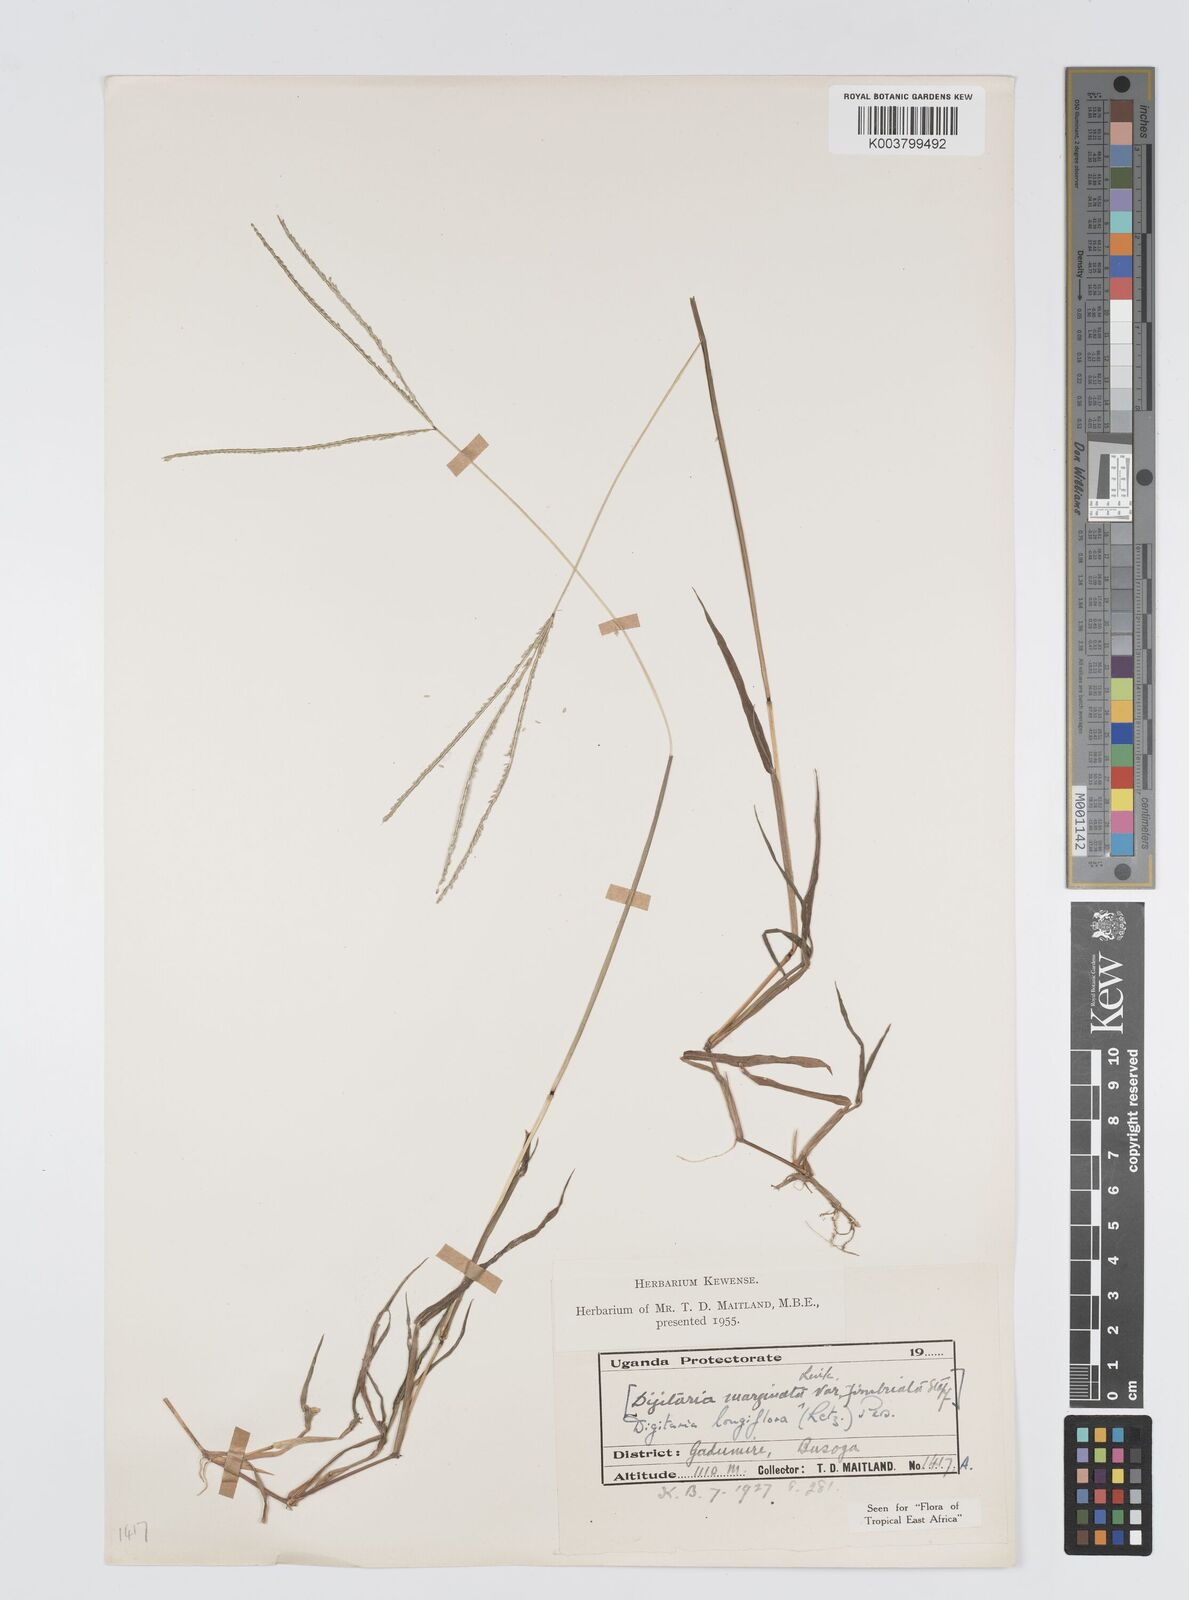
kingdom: Plantae
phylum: Tracheophyta
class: Liliopsida
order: Poales
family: Poaceae
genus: Digitaria
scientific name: Digitaria longiflora
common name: Wire crabgrass
